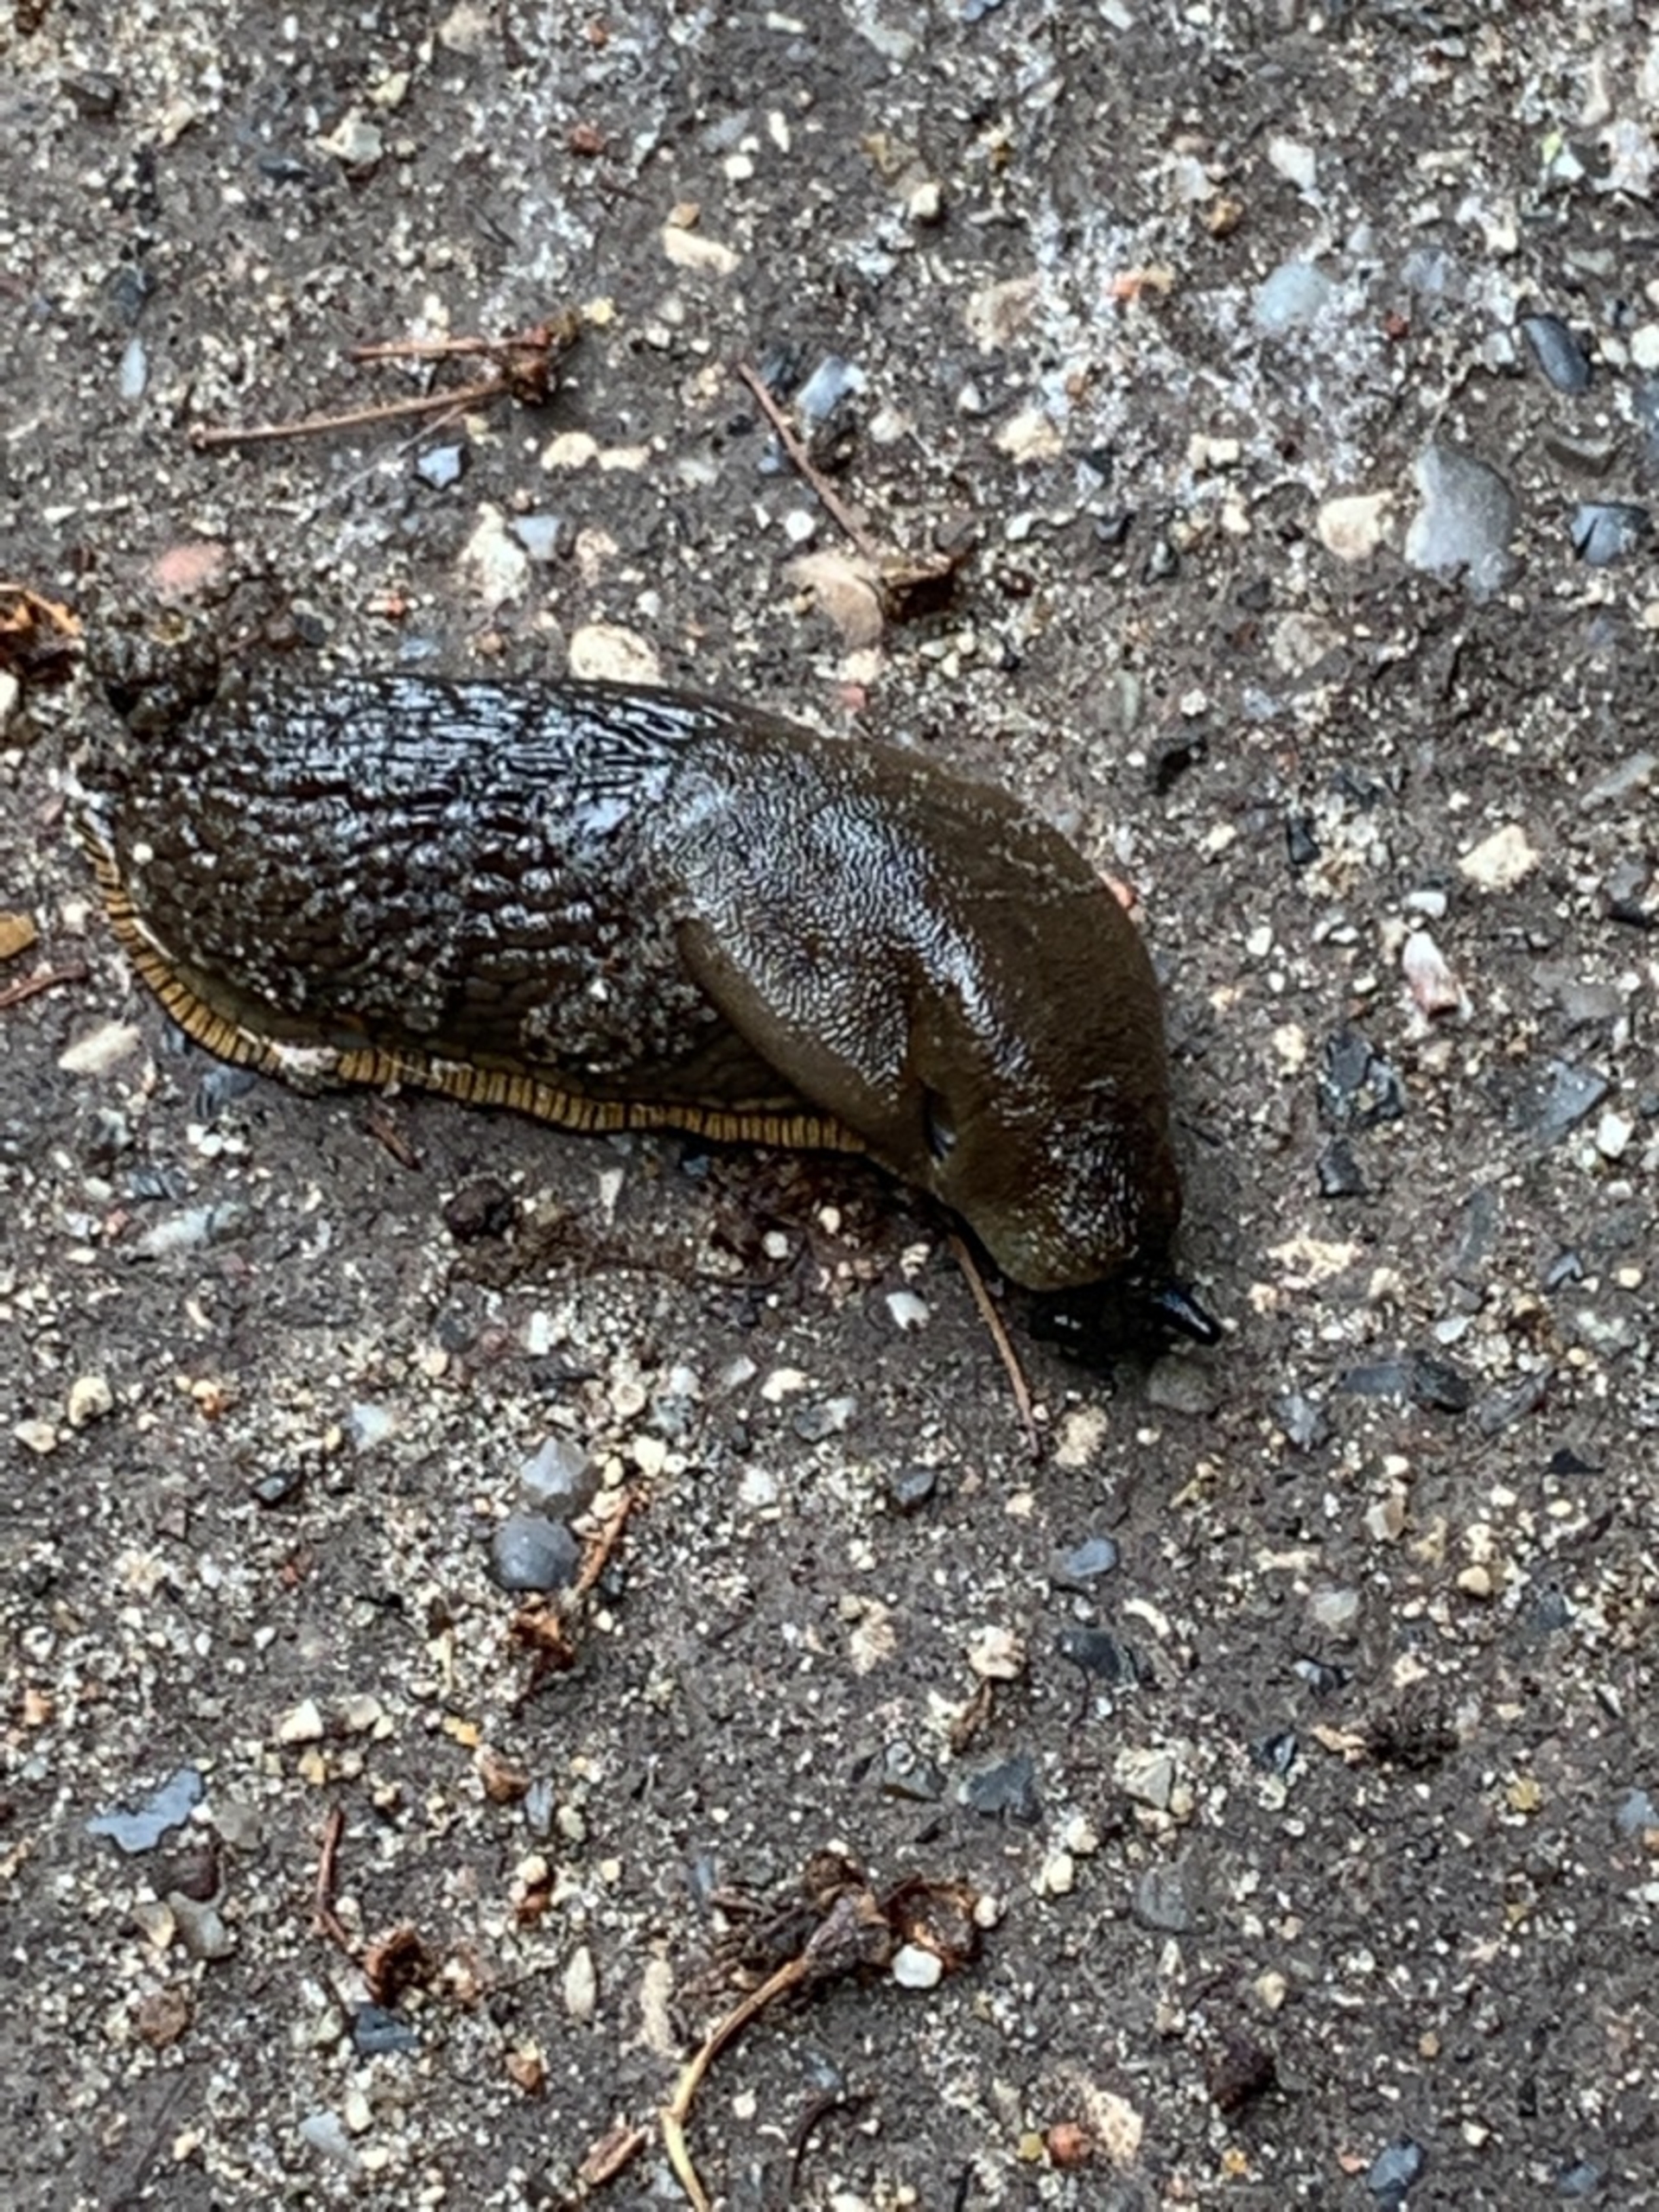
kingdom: Animalia
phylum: Mollusca
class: Gastropoda
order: Stylommatophora
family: Arionidae
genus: Arion
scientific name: Arion vulgaris
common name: Iberisk skovsnegl
